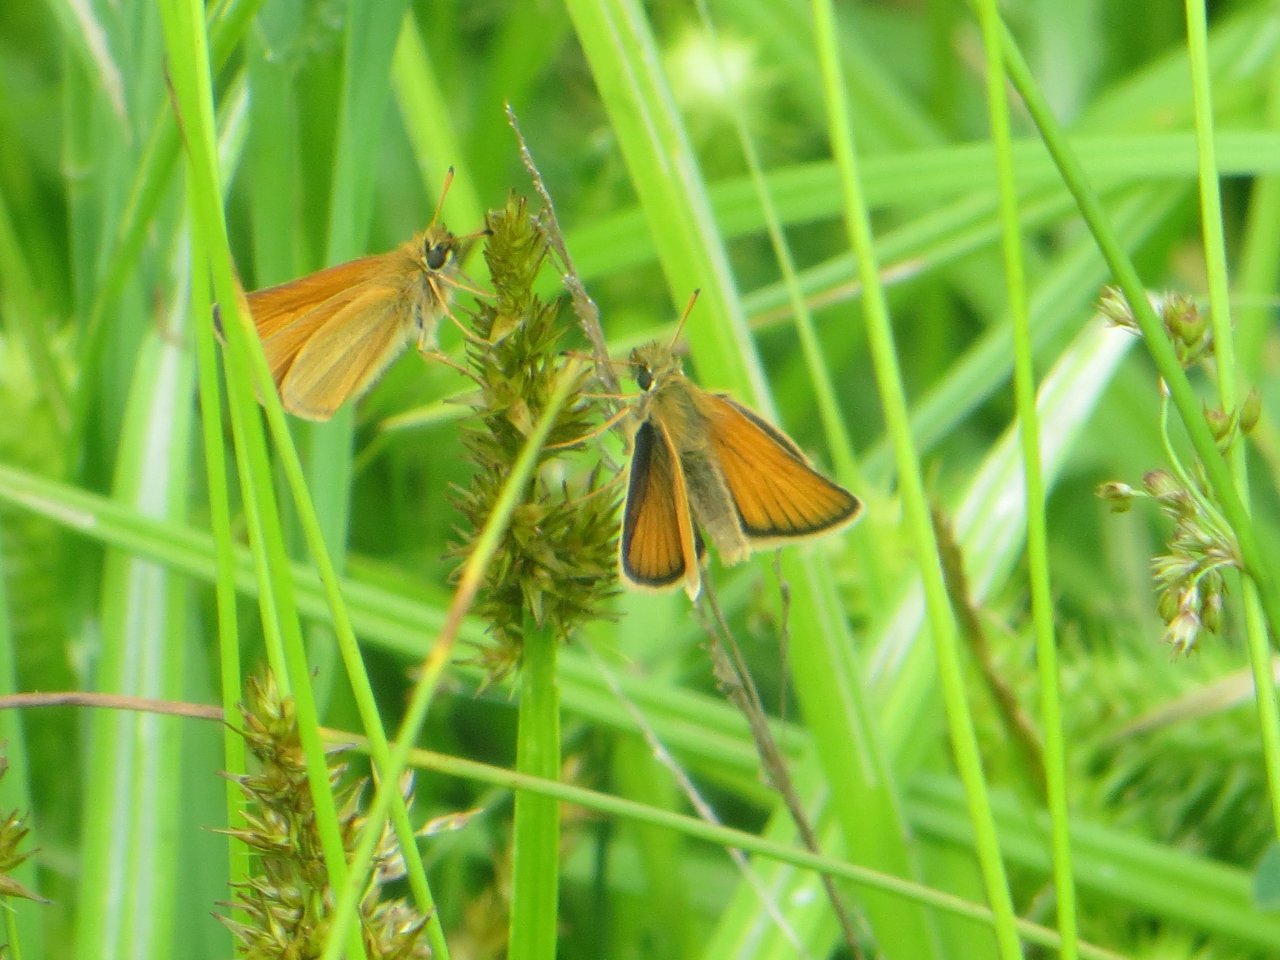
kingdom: Animalia
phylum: Arthropoda
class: Insecta
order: Lepidoptera
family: Hesperiidae
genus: Thymelicus
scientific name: Thymelicus lineola
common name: European Skipper
